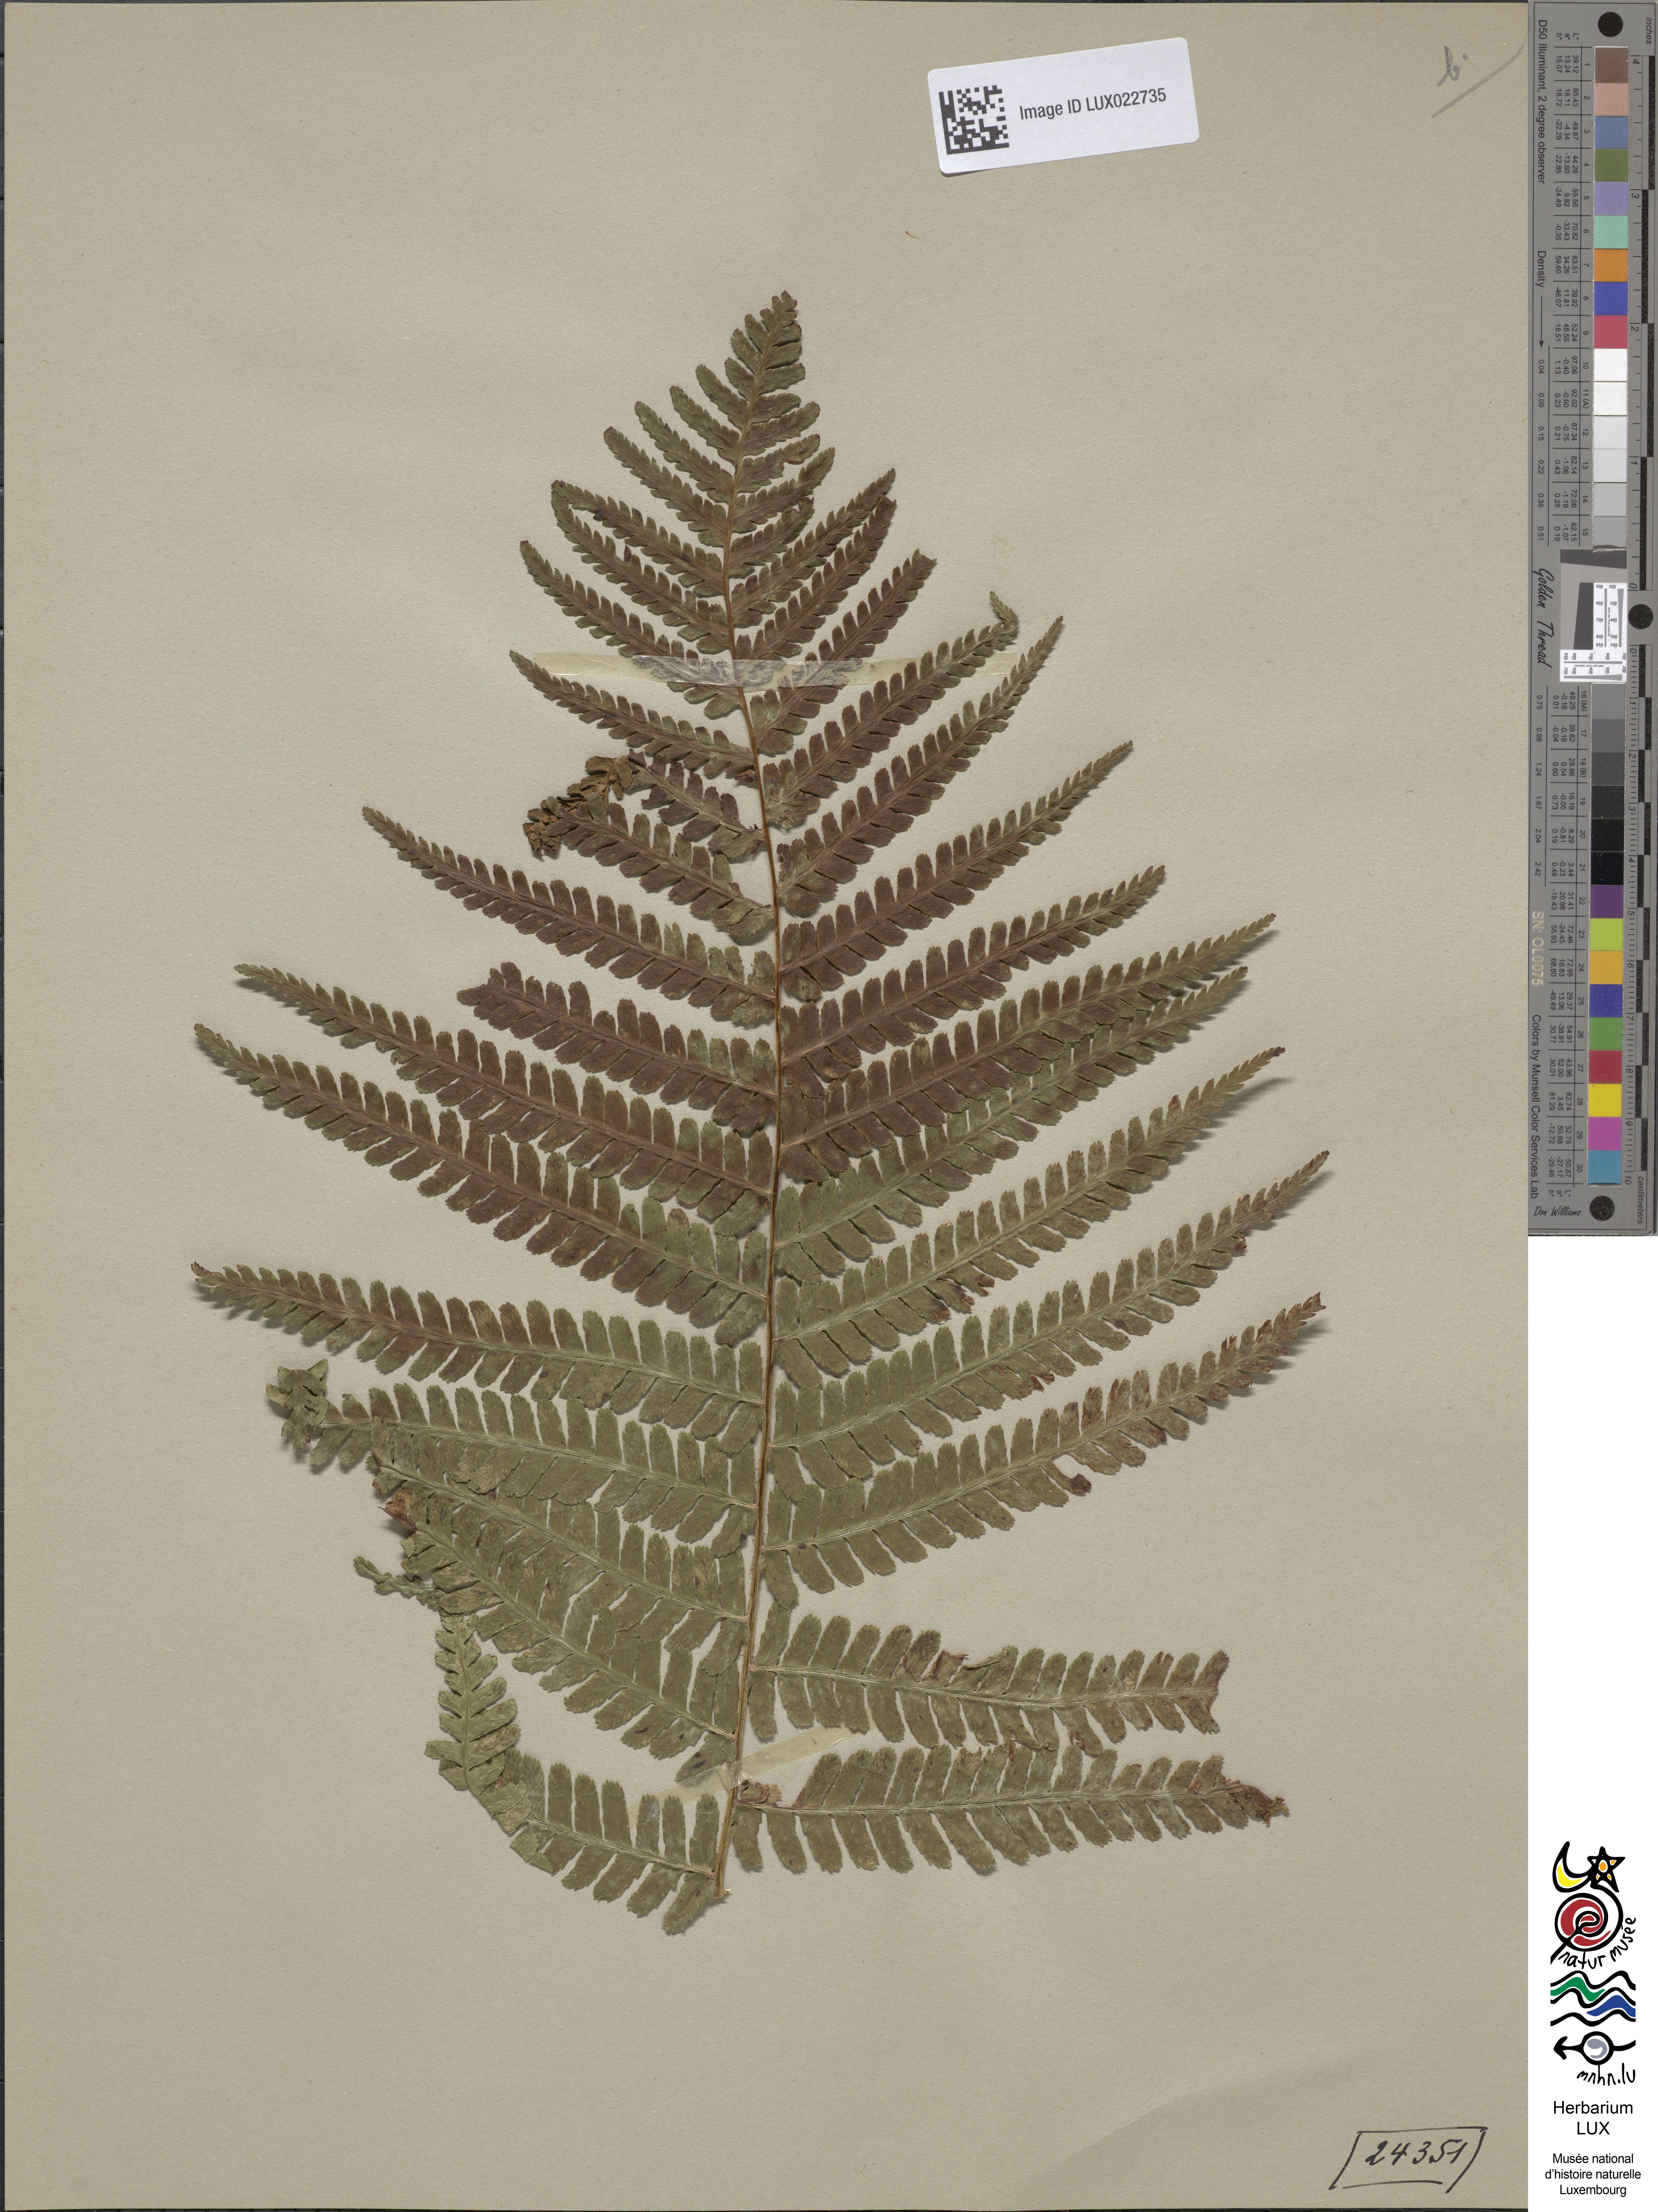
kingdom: Plantae
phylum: Tracheophyta
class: Polypodiopsida
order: Polypodiales
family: Dryopteridaceae
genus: Dryopteris
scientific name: Dryopteris filix-mas
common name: Male fern
